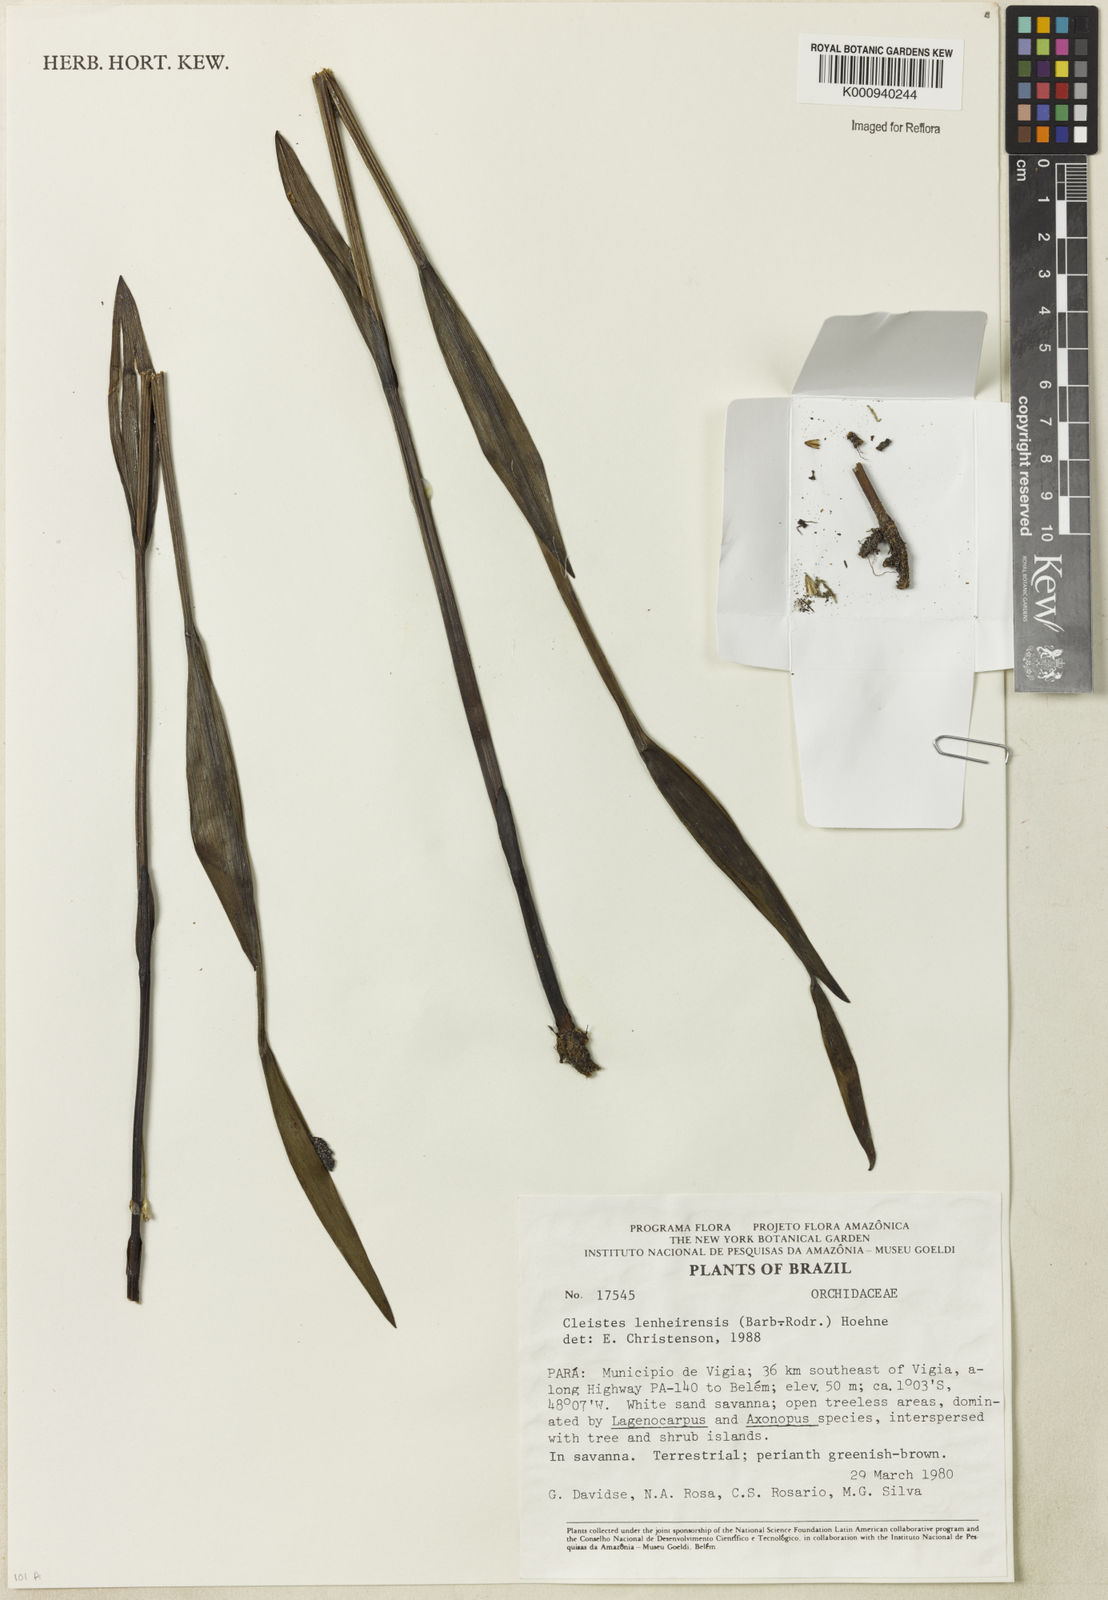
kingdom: Plantae
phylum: Tracheophyta
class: Liliopsida
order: Asparagales
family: Orchidaceae
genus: Cleistes
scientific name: Cleistes speciosa
